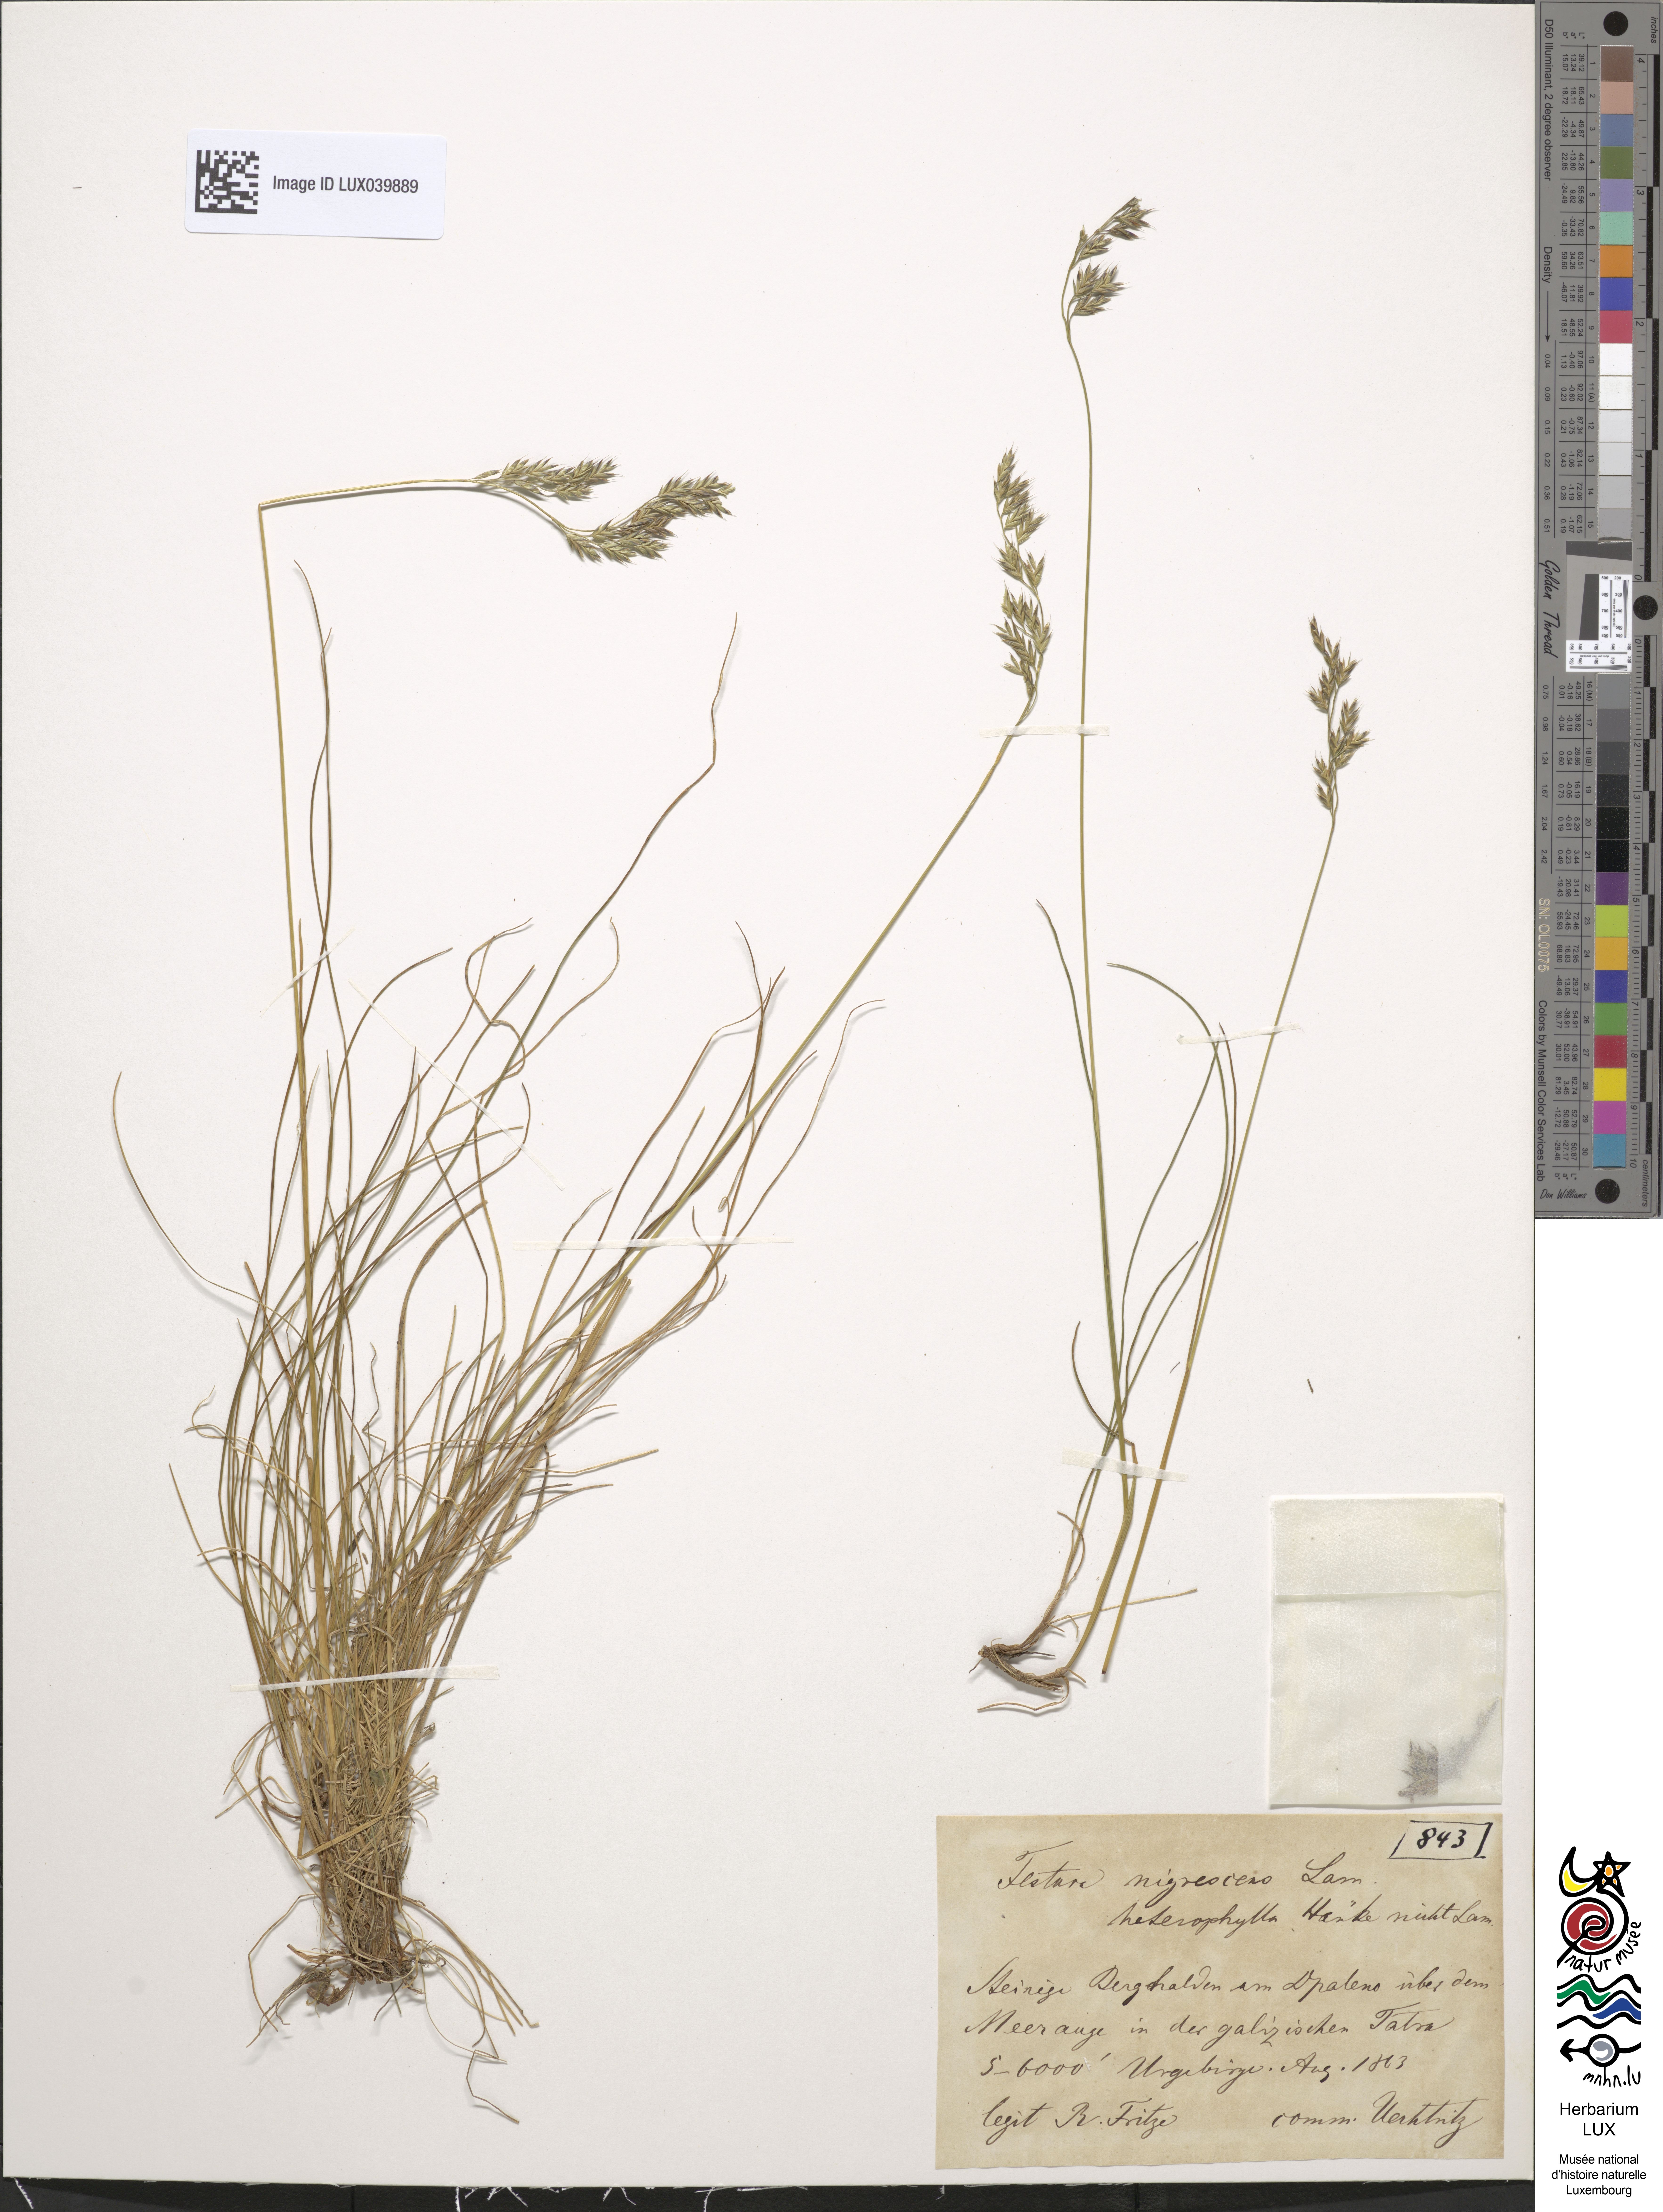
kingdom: Plantae
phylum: Tracheophyta
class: Liliopsida
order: Poales
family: Poaceae
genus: Festuca
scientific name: Festuca nigrescens
